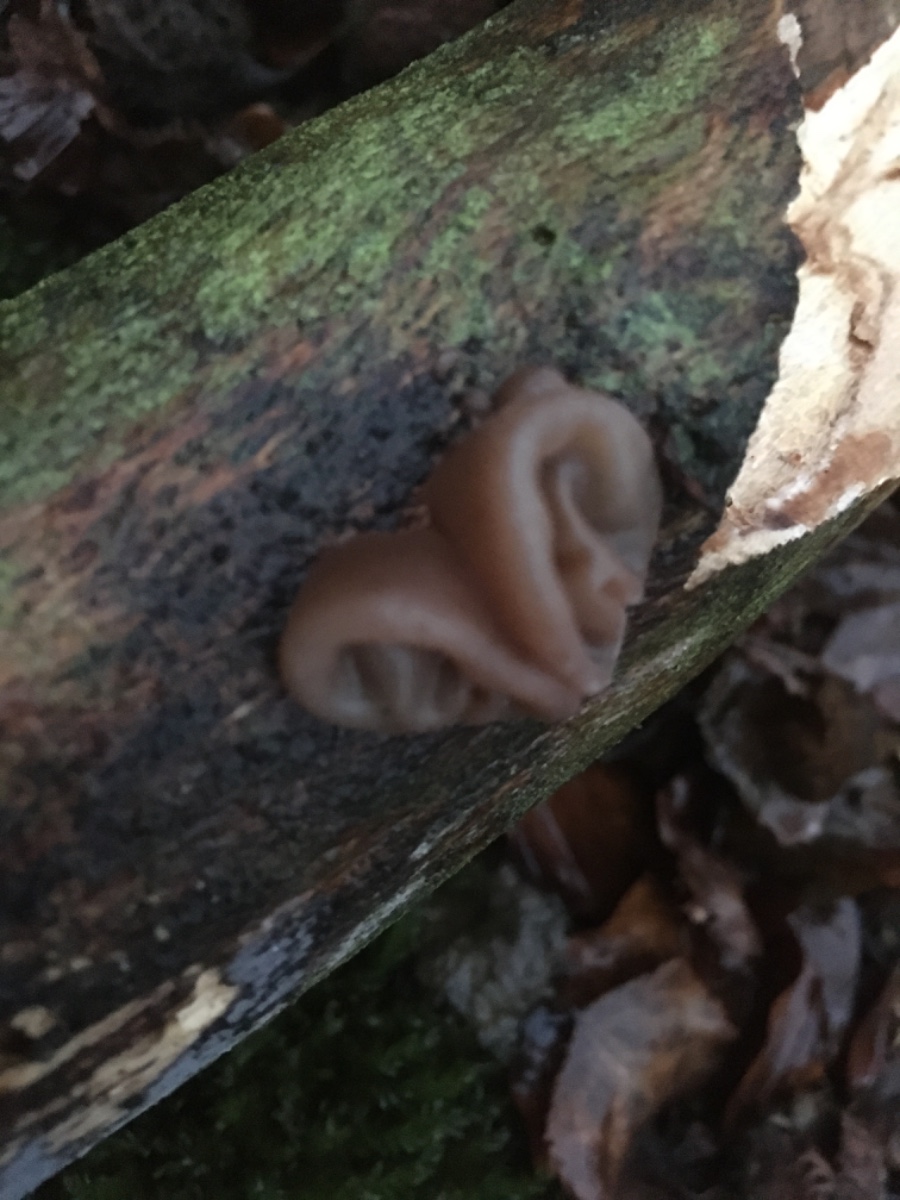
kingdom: Fungi
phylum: Basidiomycota
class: Agaricomycetes
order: Auriculariales
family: Auriculariaceae
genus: Auricularia
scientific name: Auricularia auricula-judae
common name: almindelig judasøre
